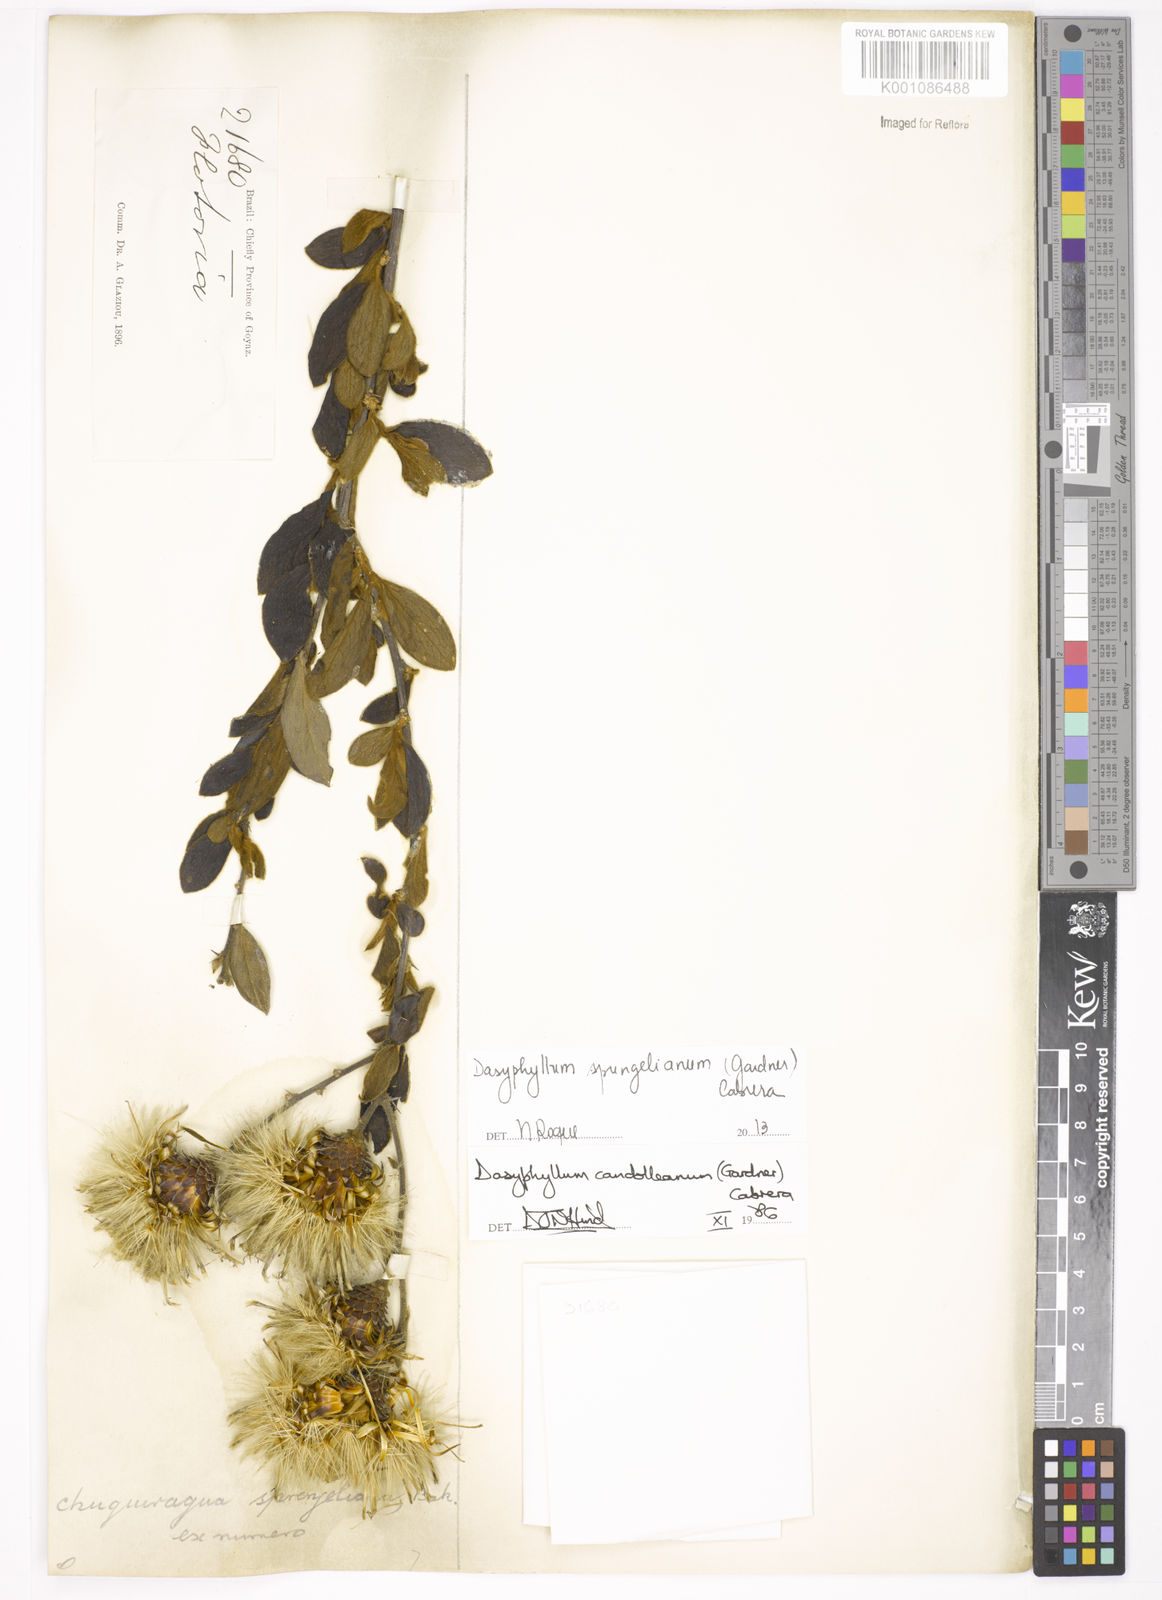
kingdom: Plantae
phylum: Tracheophyta
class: Magnoliopsida
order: Asterales
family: Asteraceae
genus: Dasyphyllum
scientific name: Dasyphyllum sprengelianum
